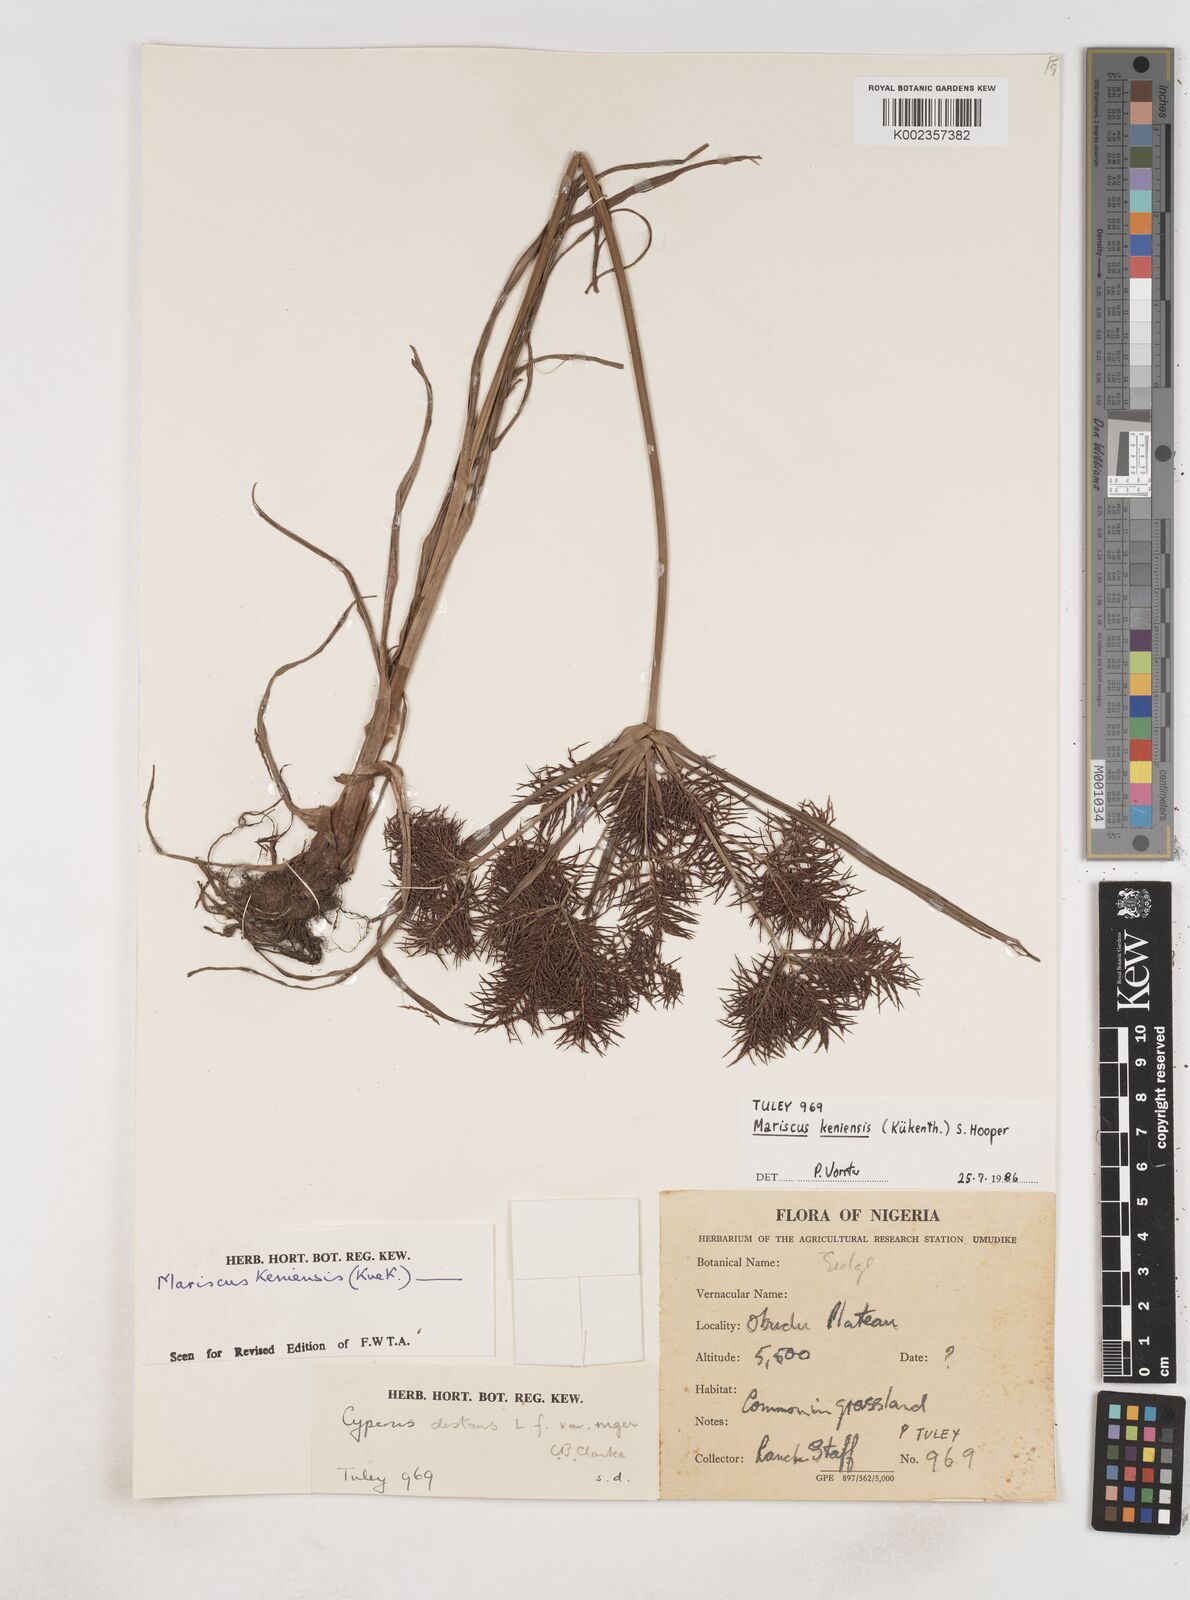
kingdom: Plantae
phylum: Tracheophyta
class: Liliopsida
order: Poales
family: Cyperaceae
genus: Cyperus
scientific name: Cyperus distans
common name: Slender cyperus
